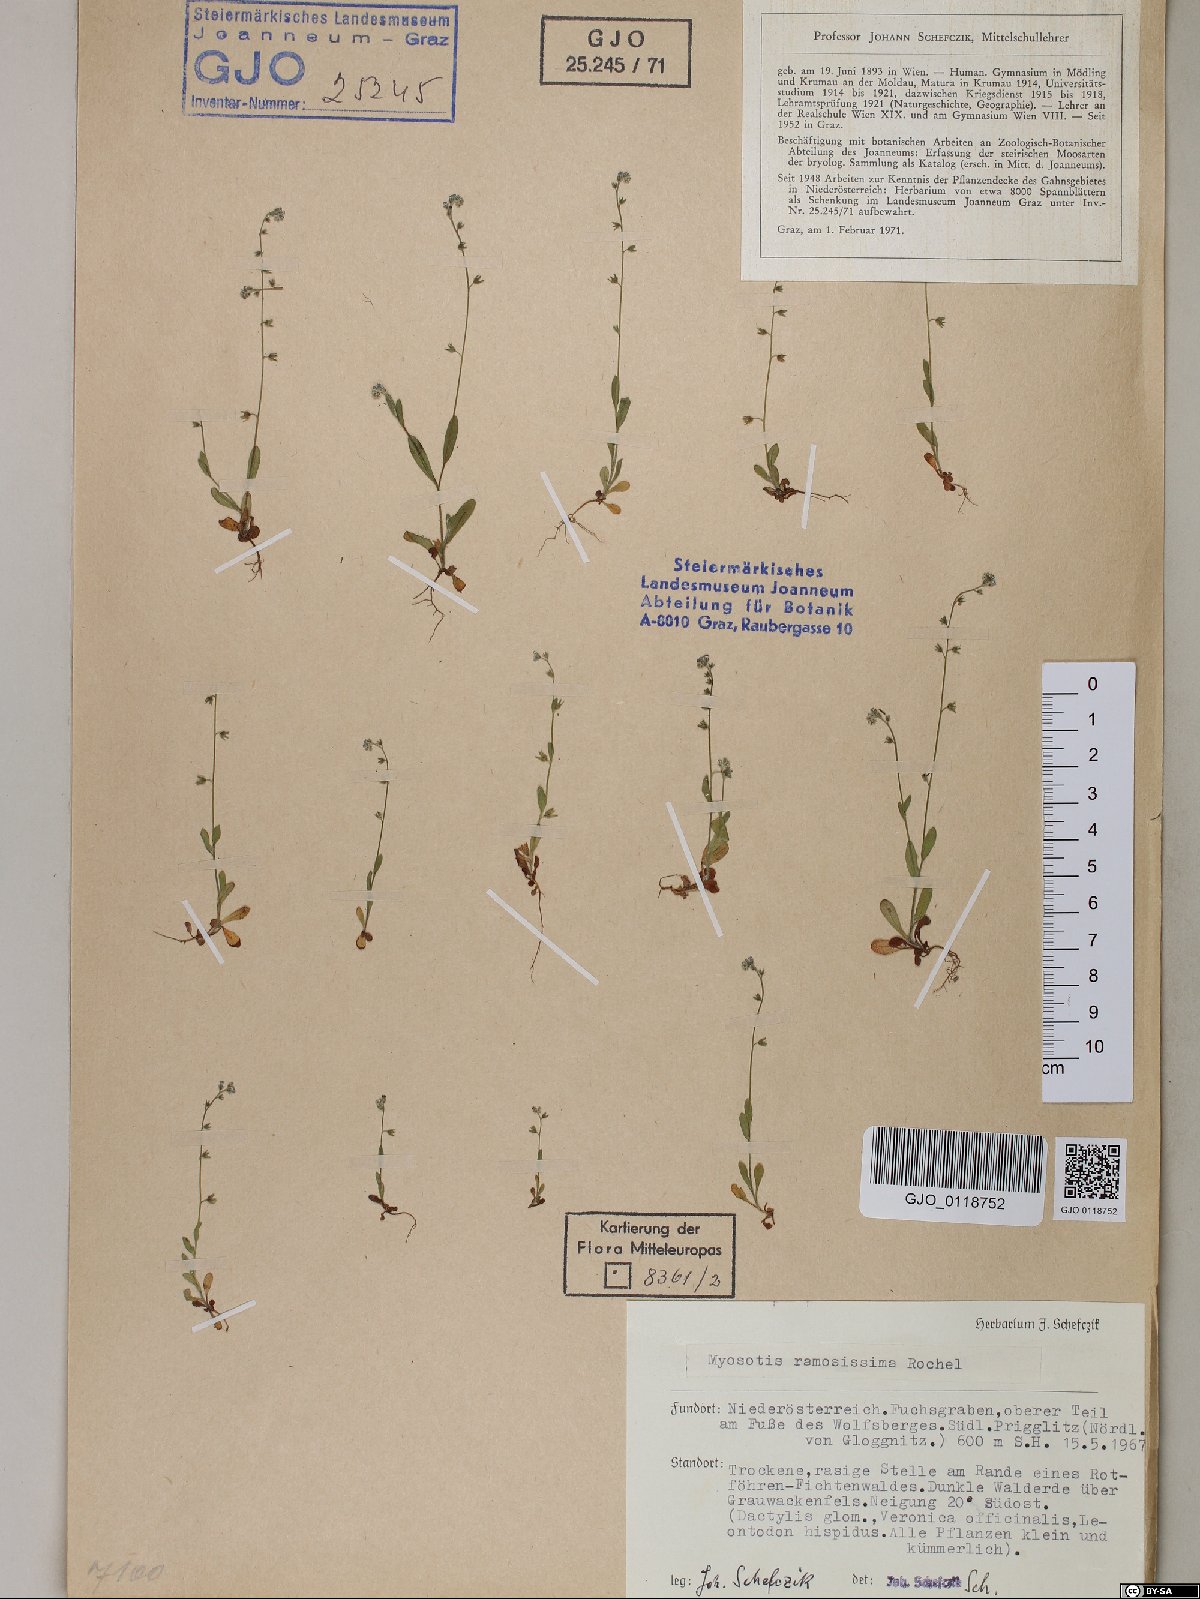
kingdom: Plantae
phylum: Tracheophyta
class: Magnoliopsida
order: Boraginales
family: Boraginaceae
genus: Myosotis
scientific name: Myosotis ramosissima
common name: Early forget-me-not
